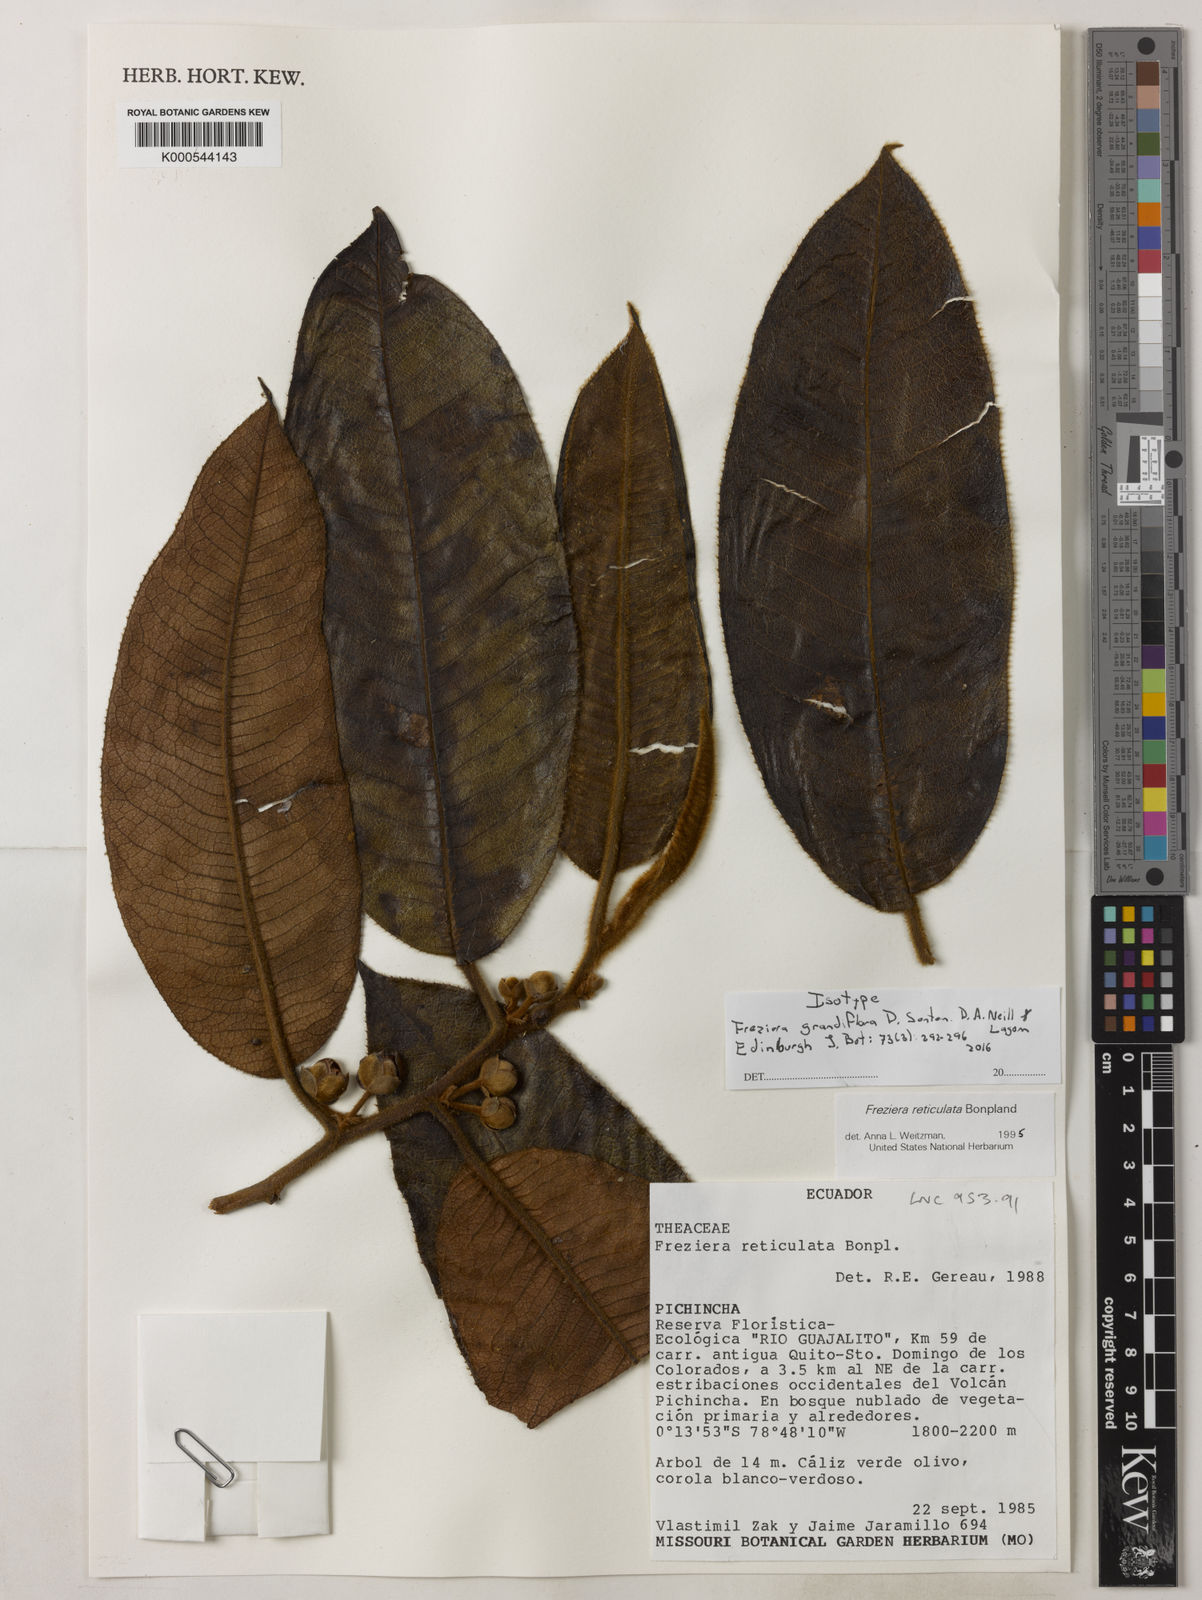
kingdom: Plantae
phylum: Tracheophyta
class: Magnoliopsida
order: Ericales
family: Pentaphylacaceae
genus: Freziera
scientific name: Freziera grandiflora
